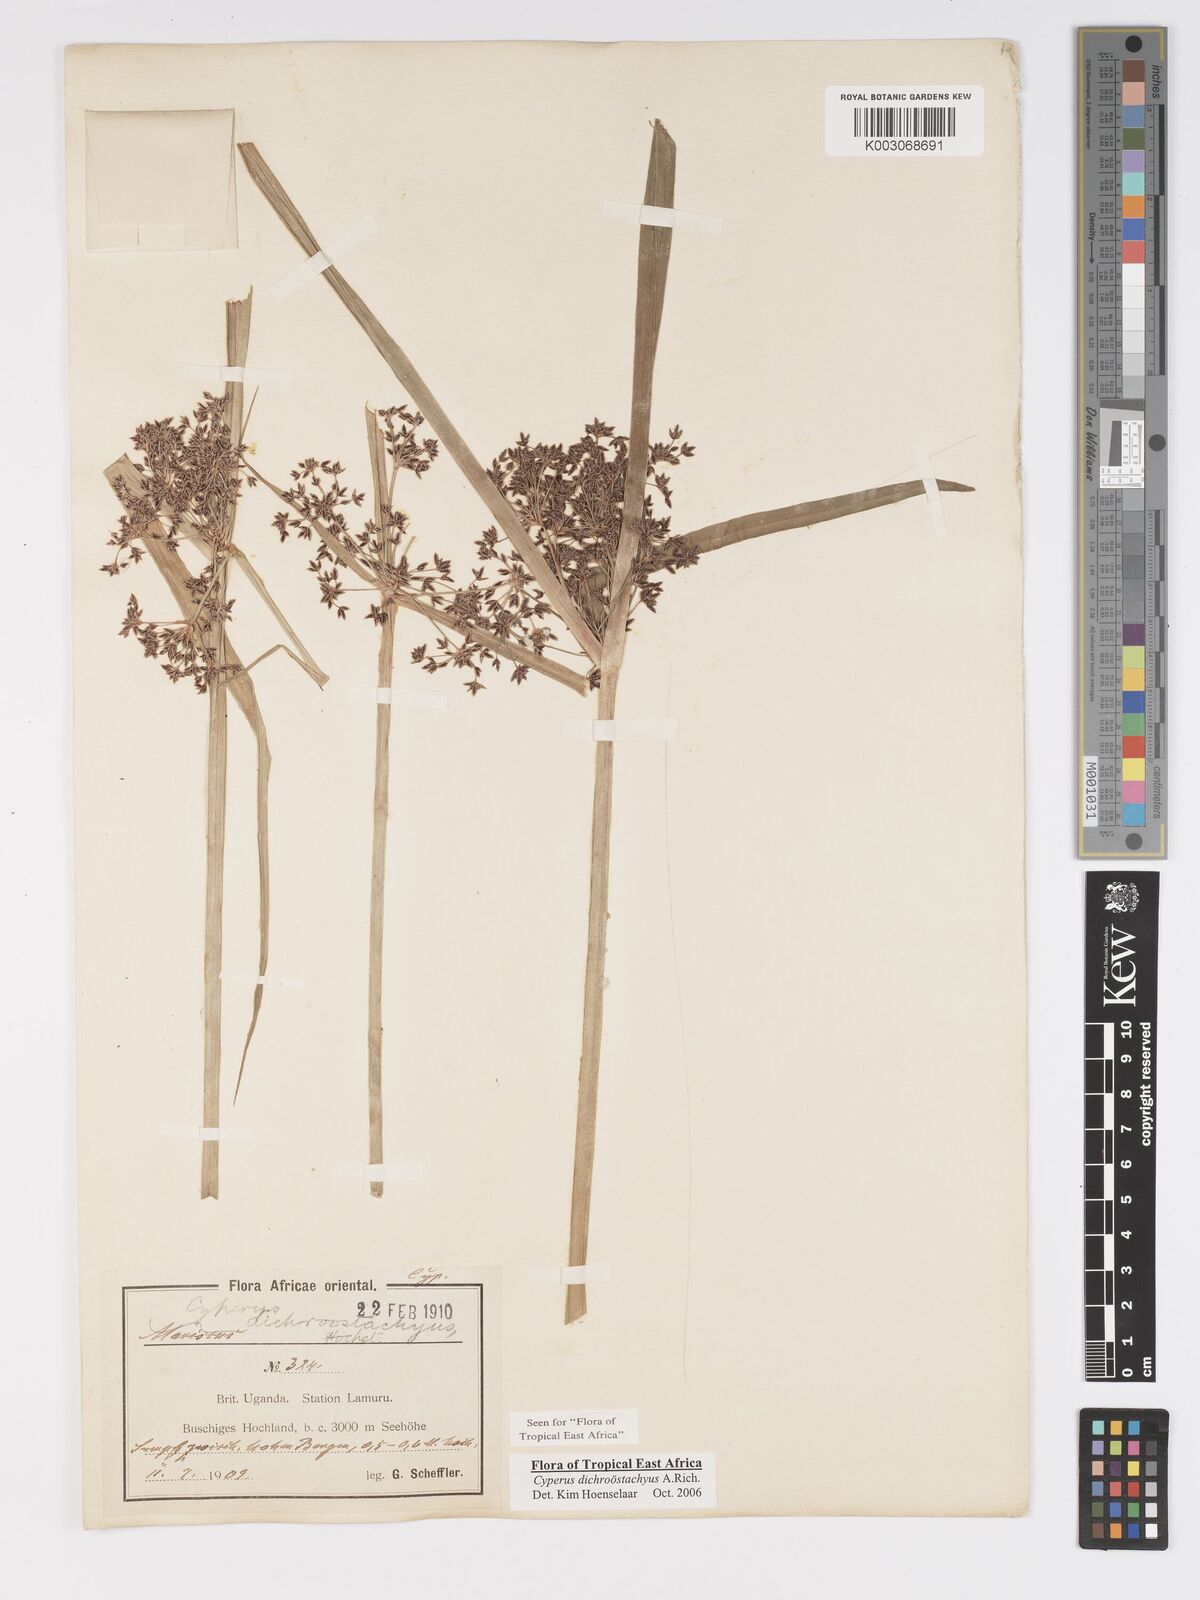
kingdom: Plantae
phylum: Tracheophyta
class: Liliopsida
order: Poales
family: Cyperaceae
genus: Cyperus
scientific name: Cyperus dichrostachyus
